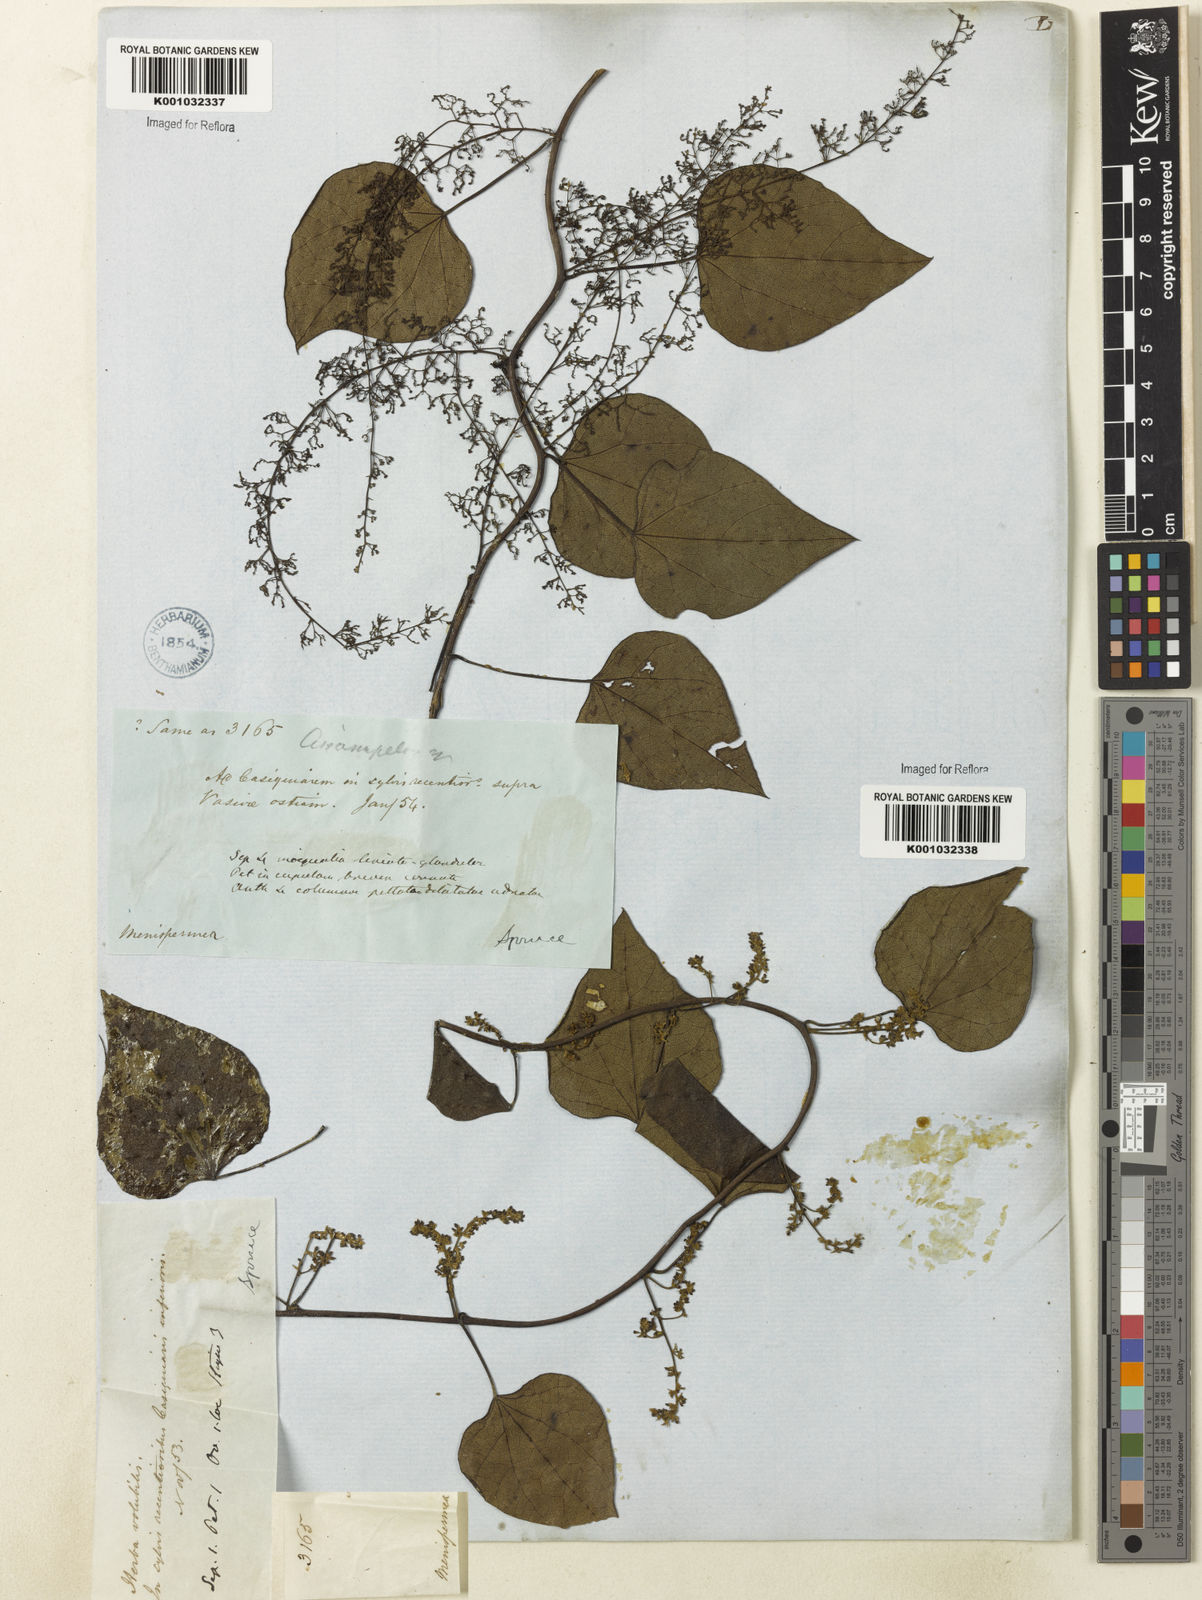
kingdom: Plantae
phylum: Tracheophyta
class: Magnoliopsida
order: Ranunculales
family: Menispermaceae
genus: Cissampelos
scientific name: Cissampelos fasciculata
